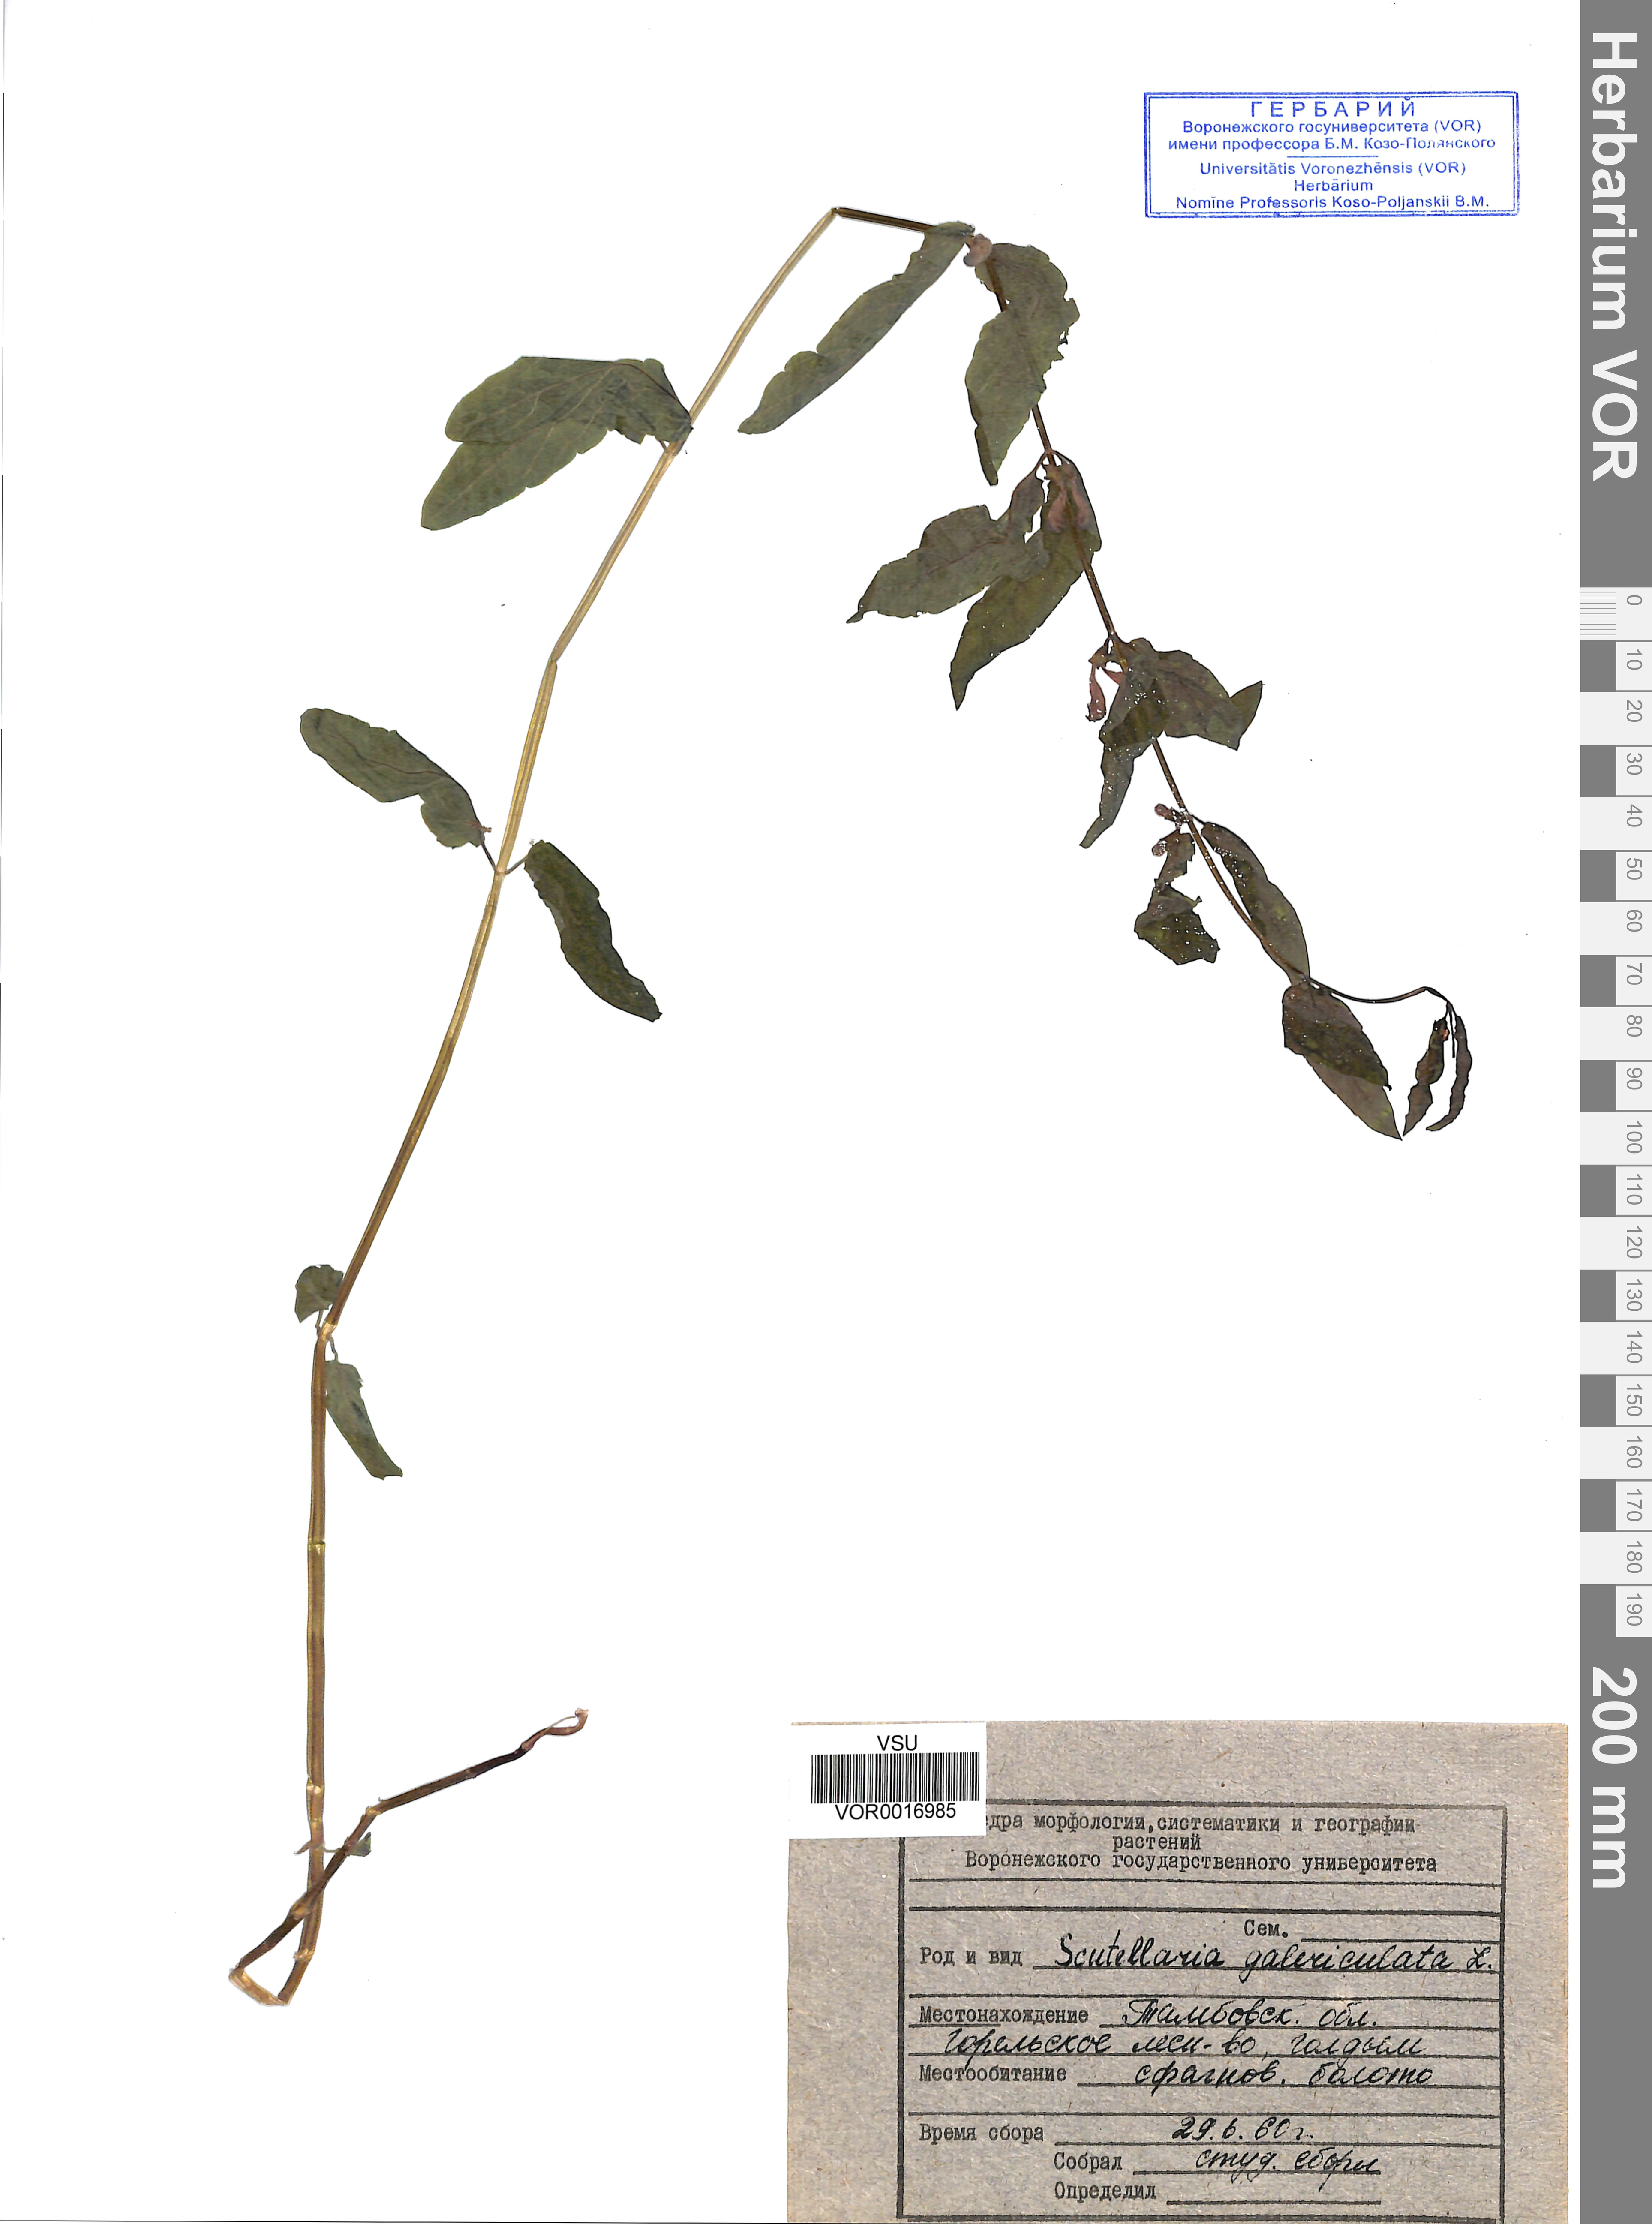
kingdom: Plantae
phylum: Tracheophyta
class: Magnoliopsida
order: Lamiales
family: Lamiaceae
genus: Scutellaria
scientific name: Scutellaria galericulata
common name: Skullcap
